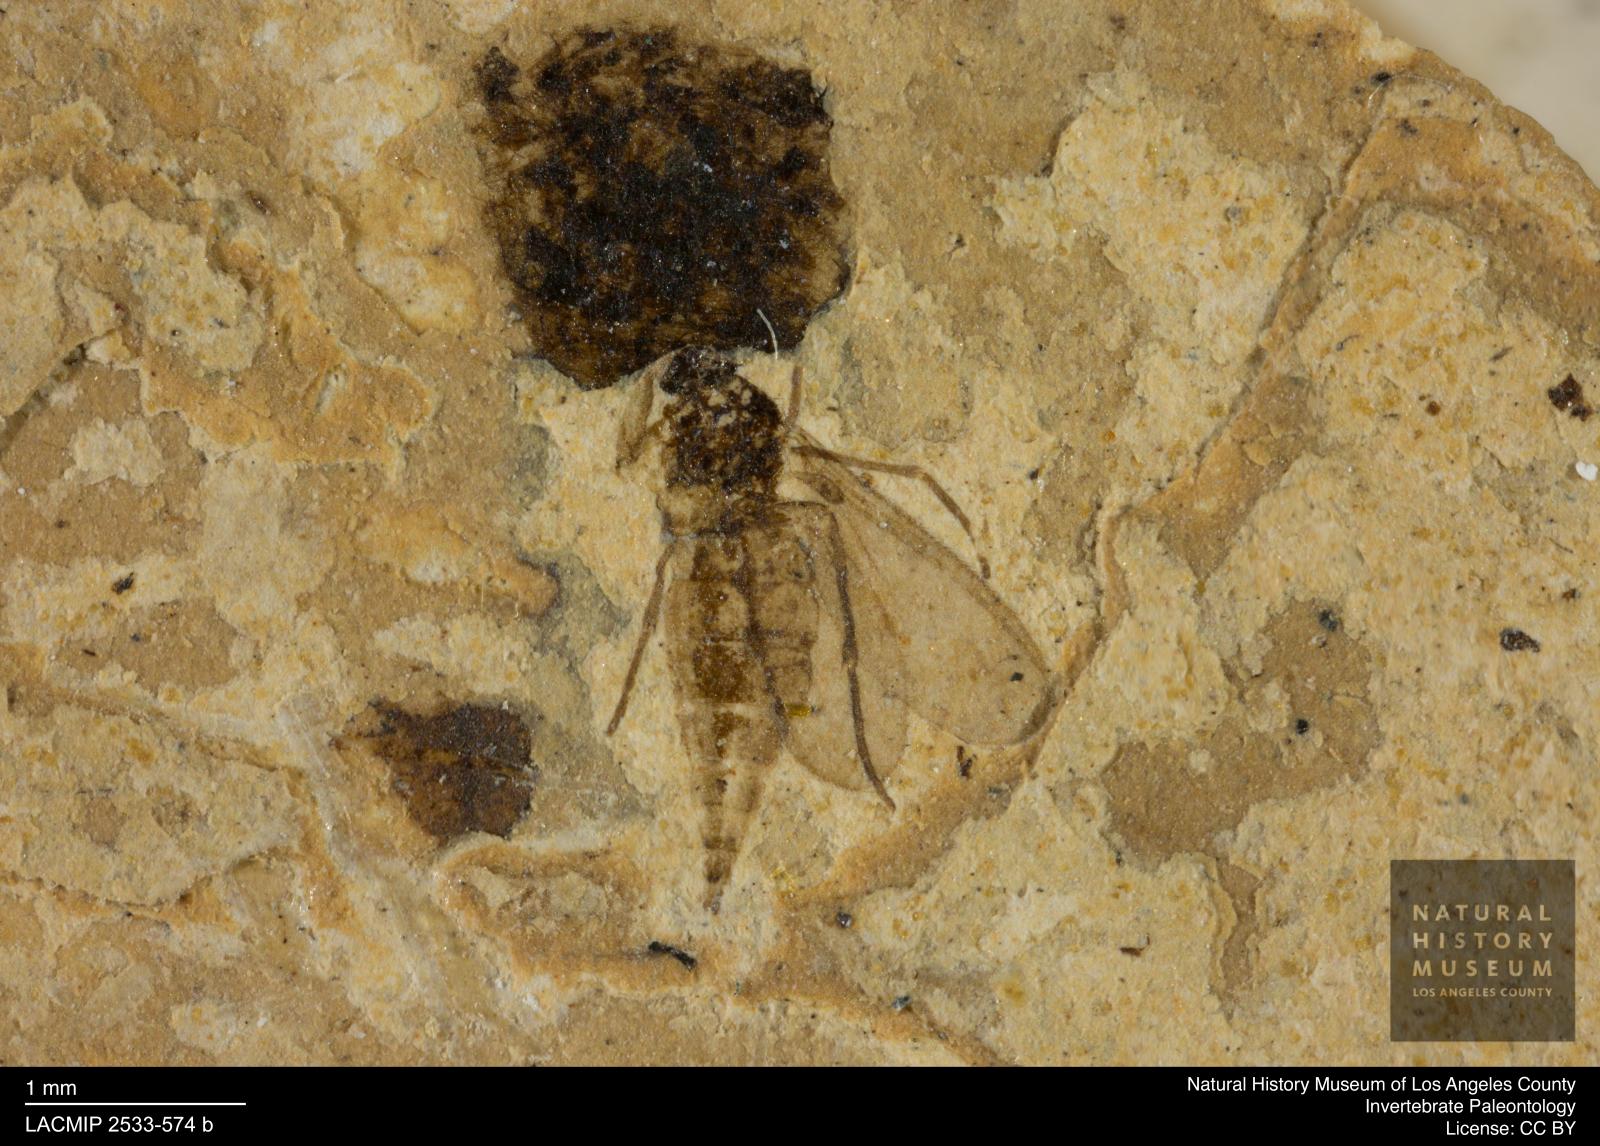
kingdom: Animalia
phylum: Arthropoda
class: Insecta
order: Diptera
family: Sciaridae
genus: Sciara
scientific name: Sciara compta
